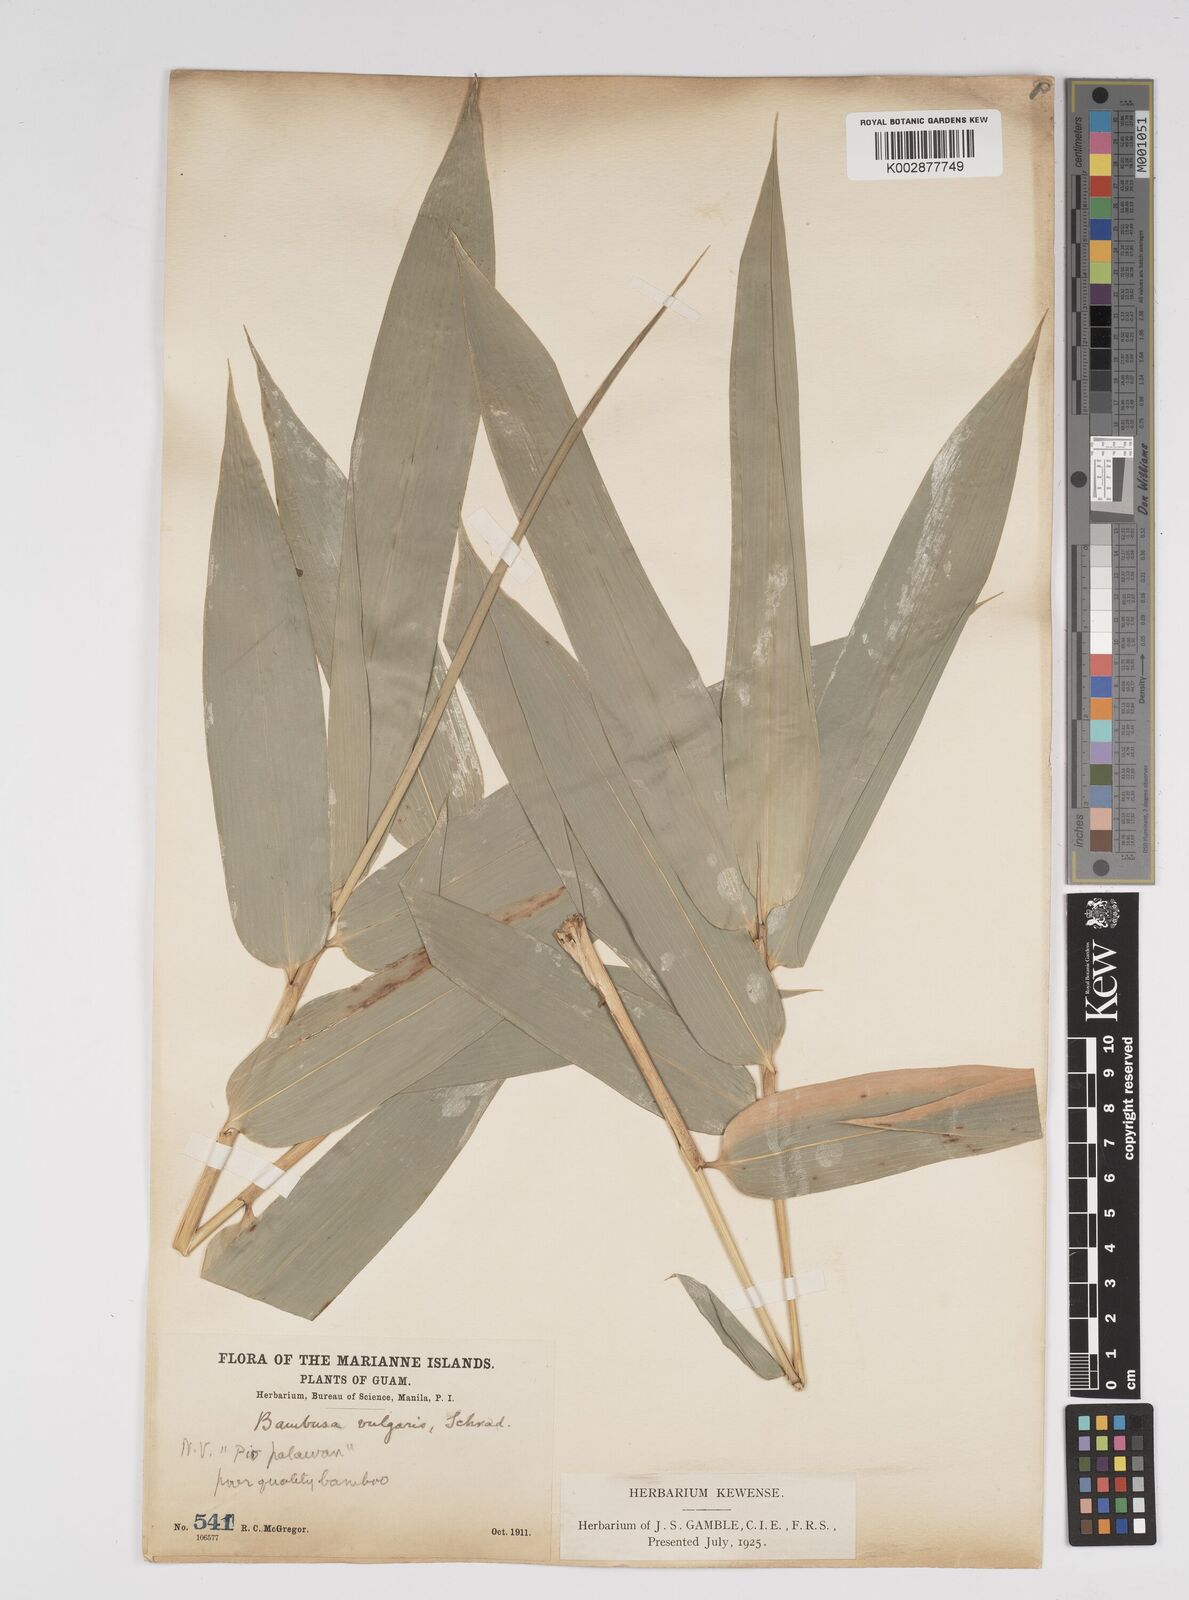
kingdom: Plantae
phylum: Tracheophyta
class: Liliopsida
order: Poales
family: Poaceae
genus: Bambusa
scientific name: Bambusa vulgaris
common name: Common bamboo
